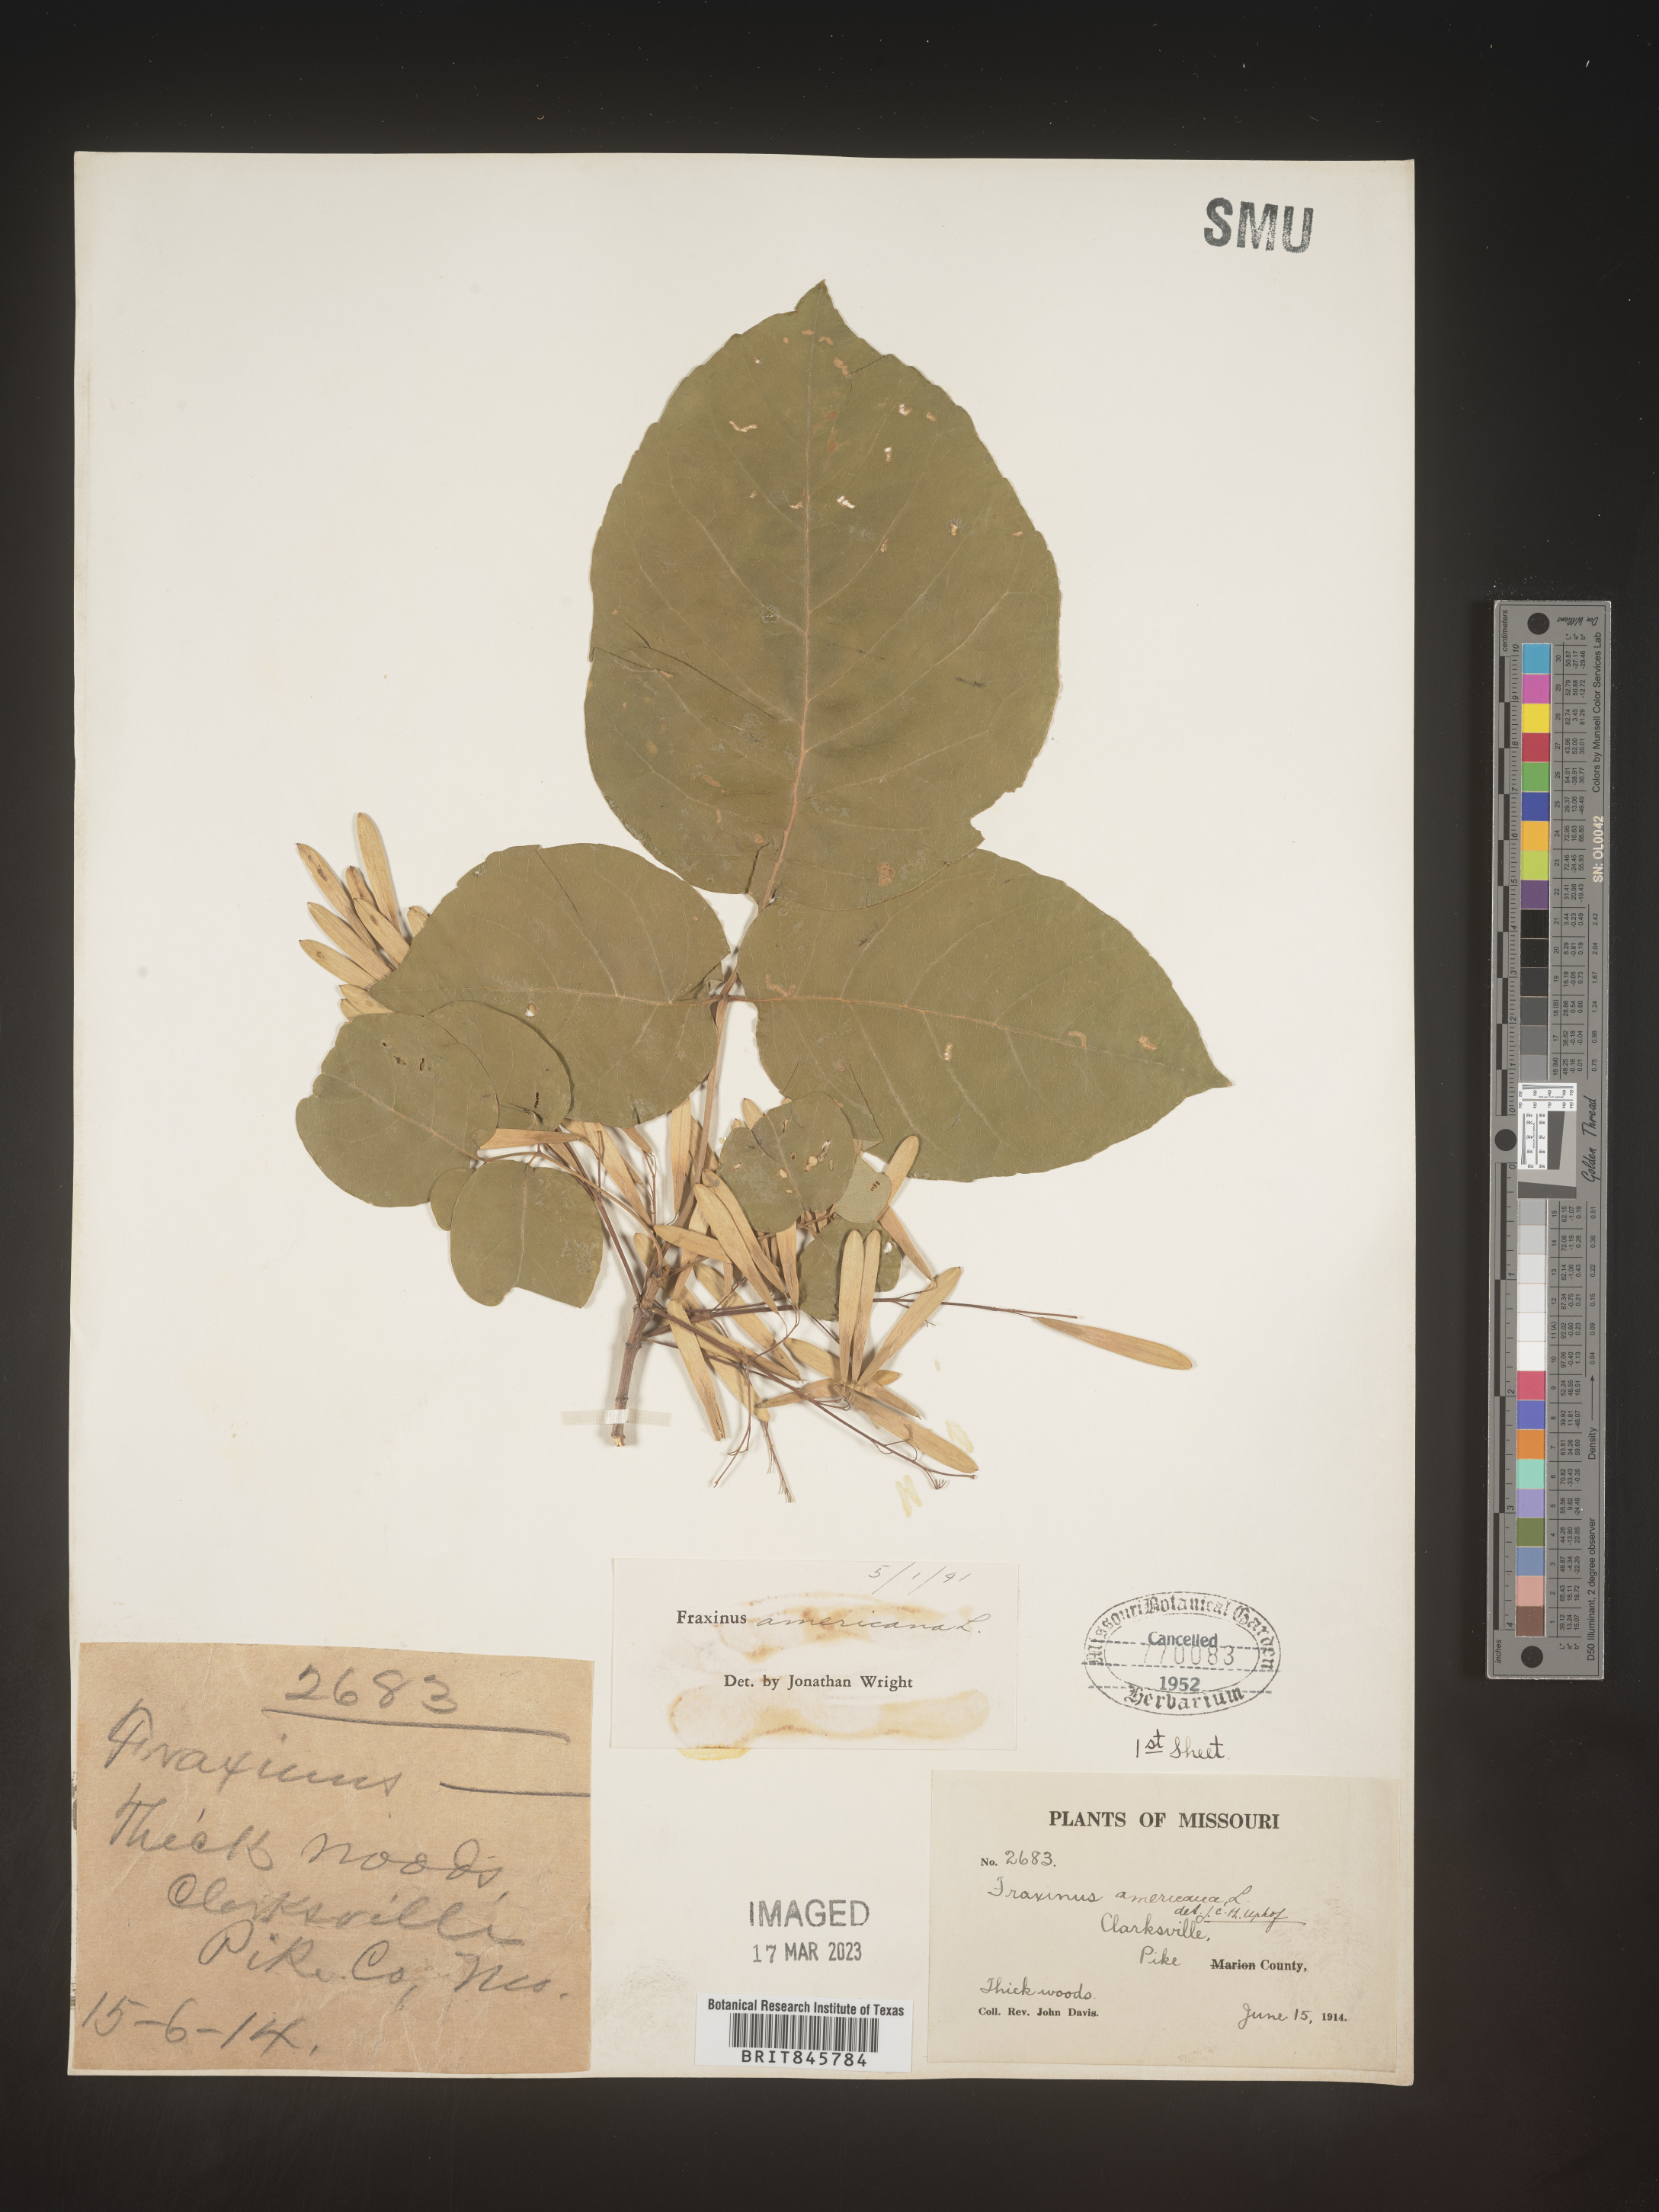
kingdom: Plantae
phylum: Tracheophyta
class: Magnoliopsida
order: Lamiales
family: Oleaceae
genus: Fraxinus
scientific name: Fraxinus americana
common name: White ash
